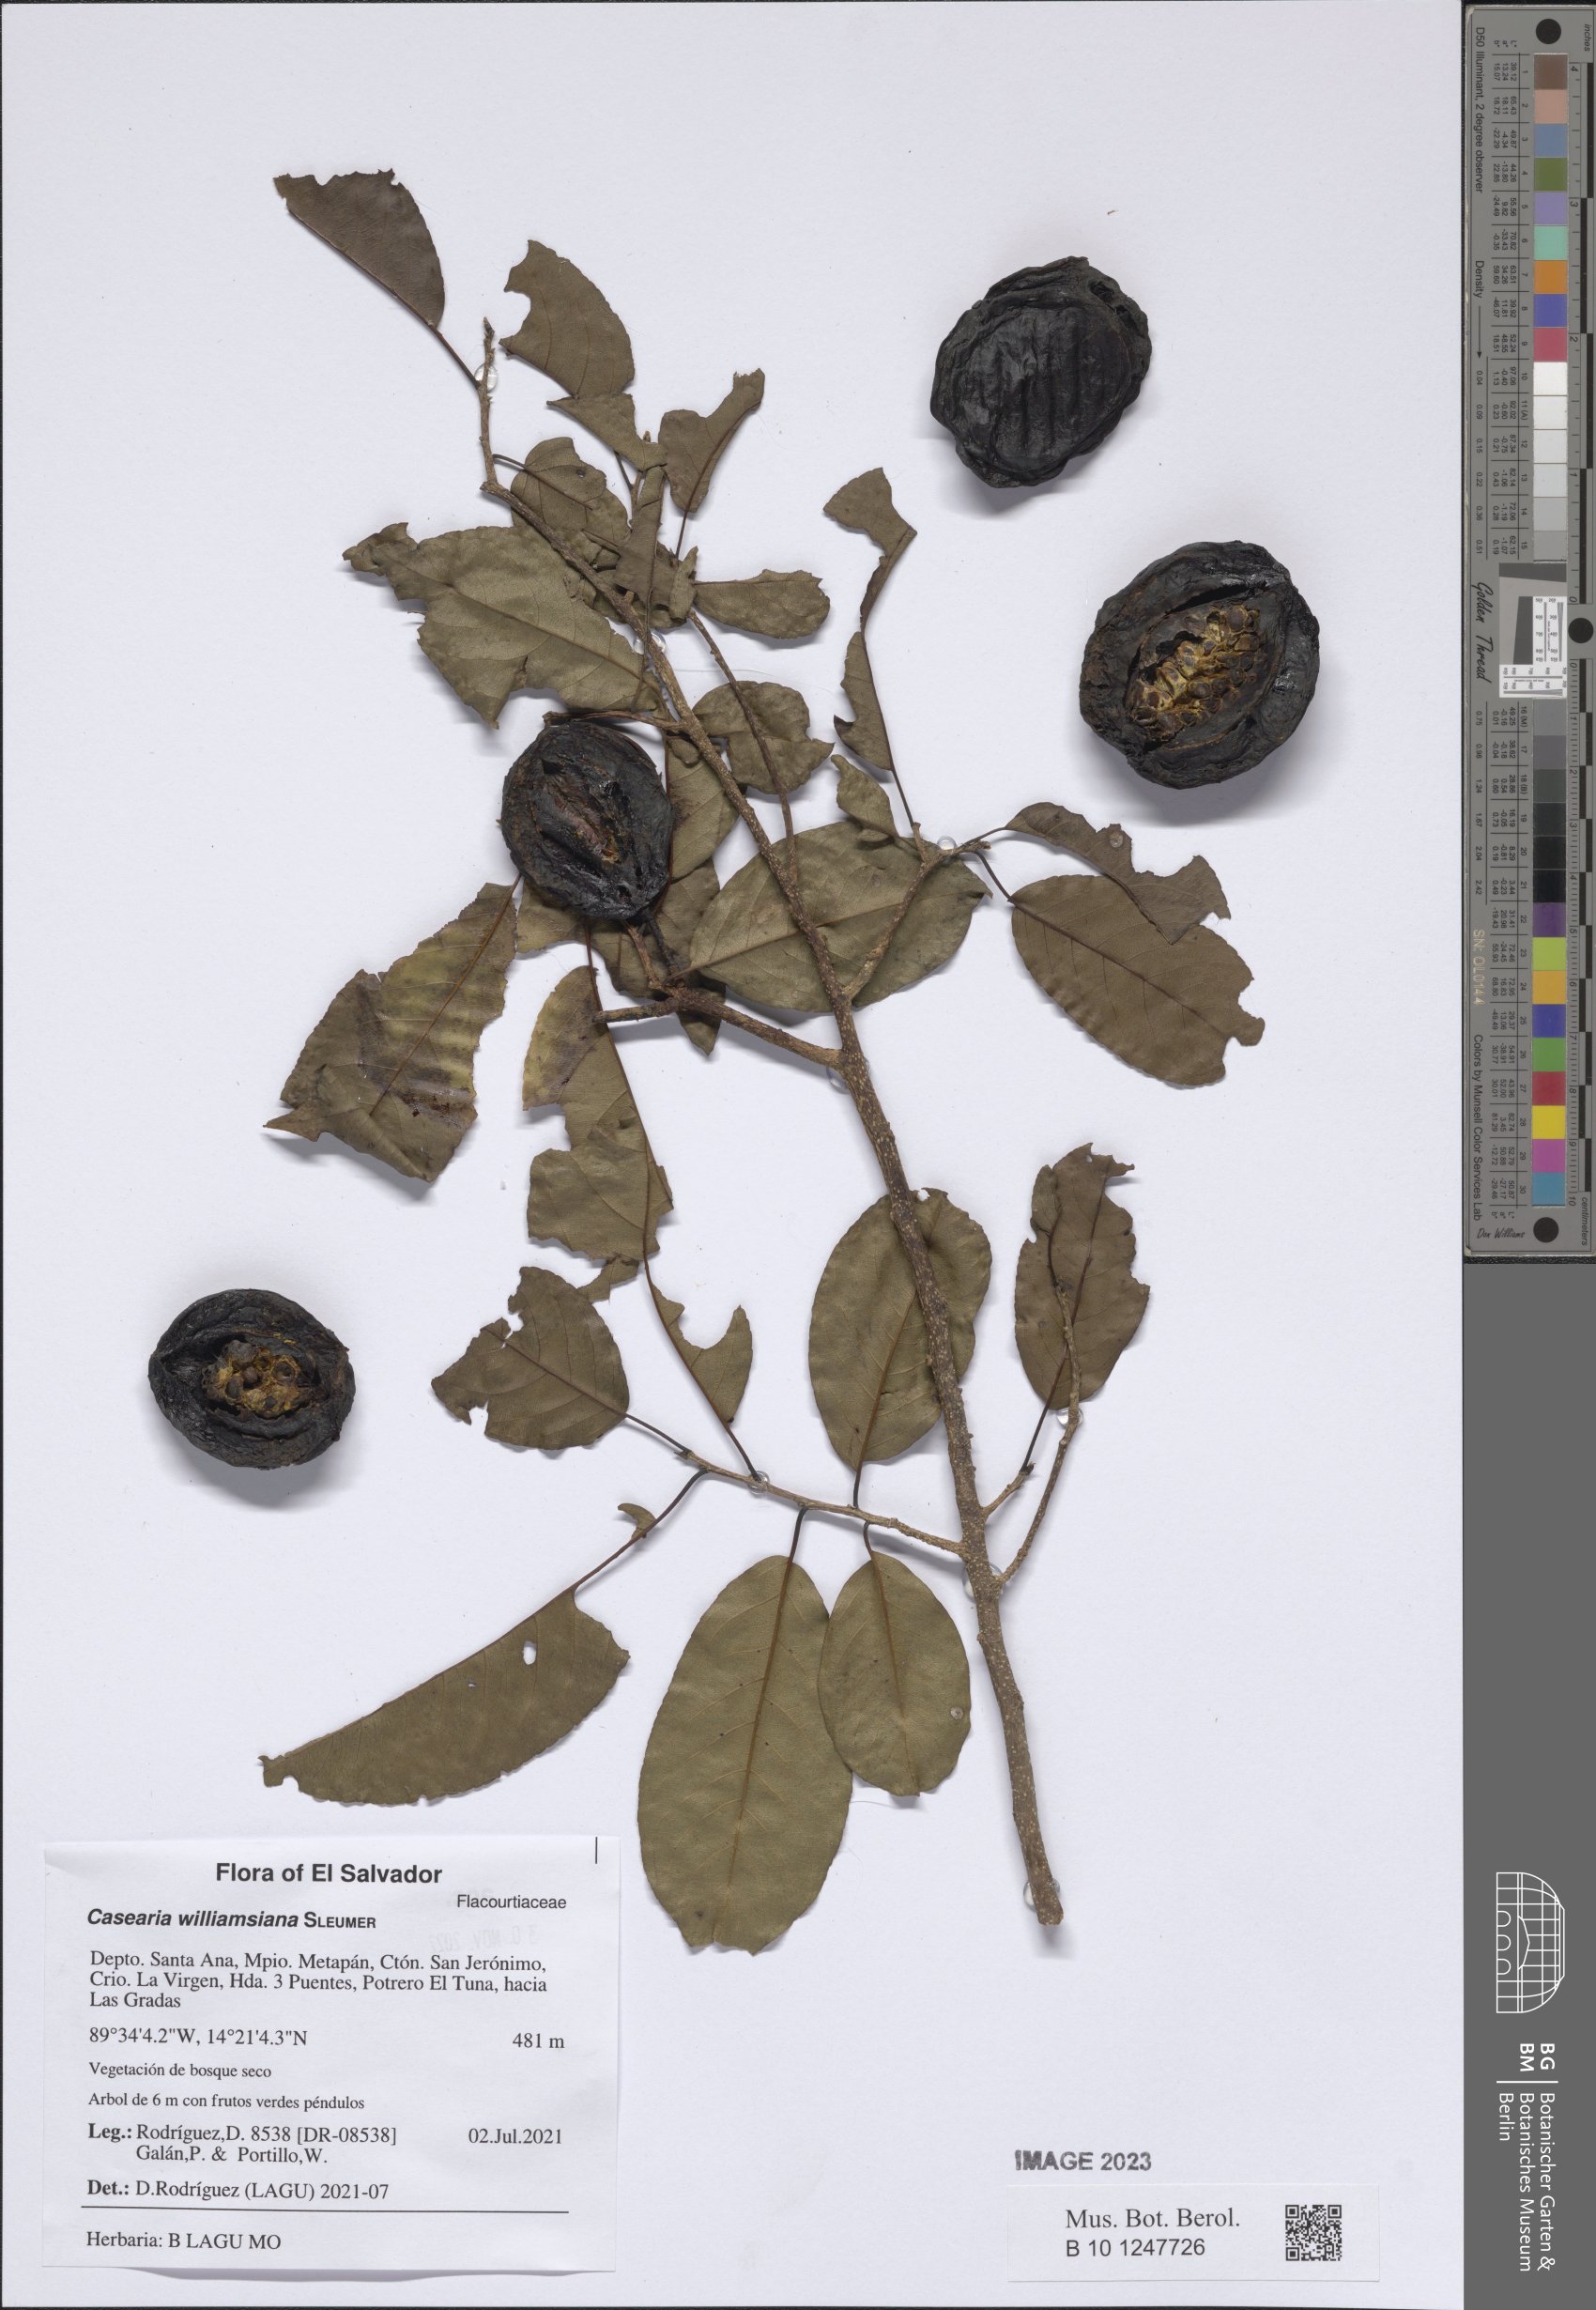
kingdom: Plantae
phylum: Tracheophyta
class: Magnoliopsida
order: Malpighiales
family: Salicaceae
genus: Casearia
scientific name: Casearia williamsiana
